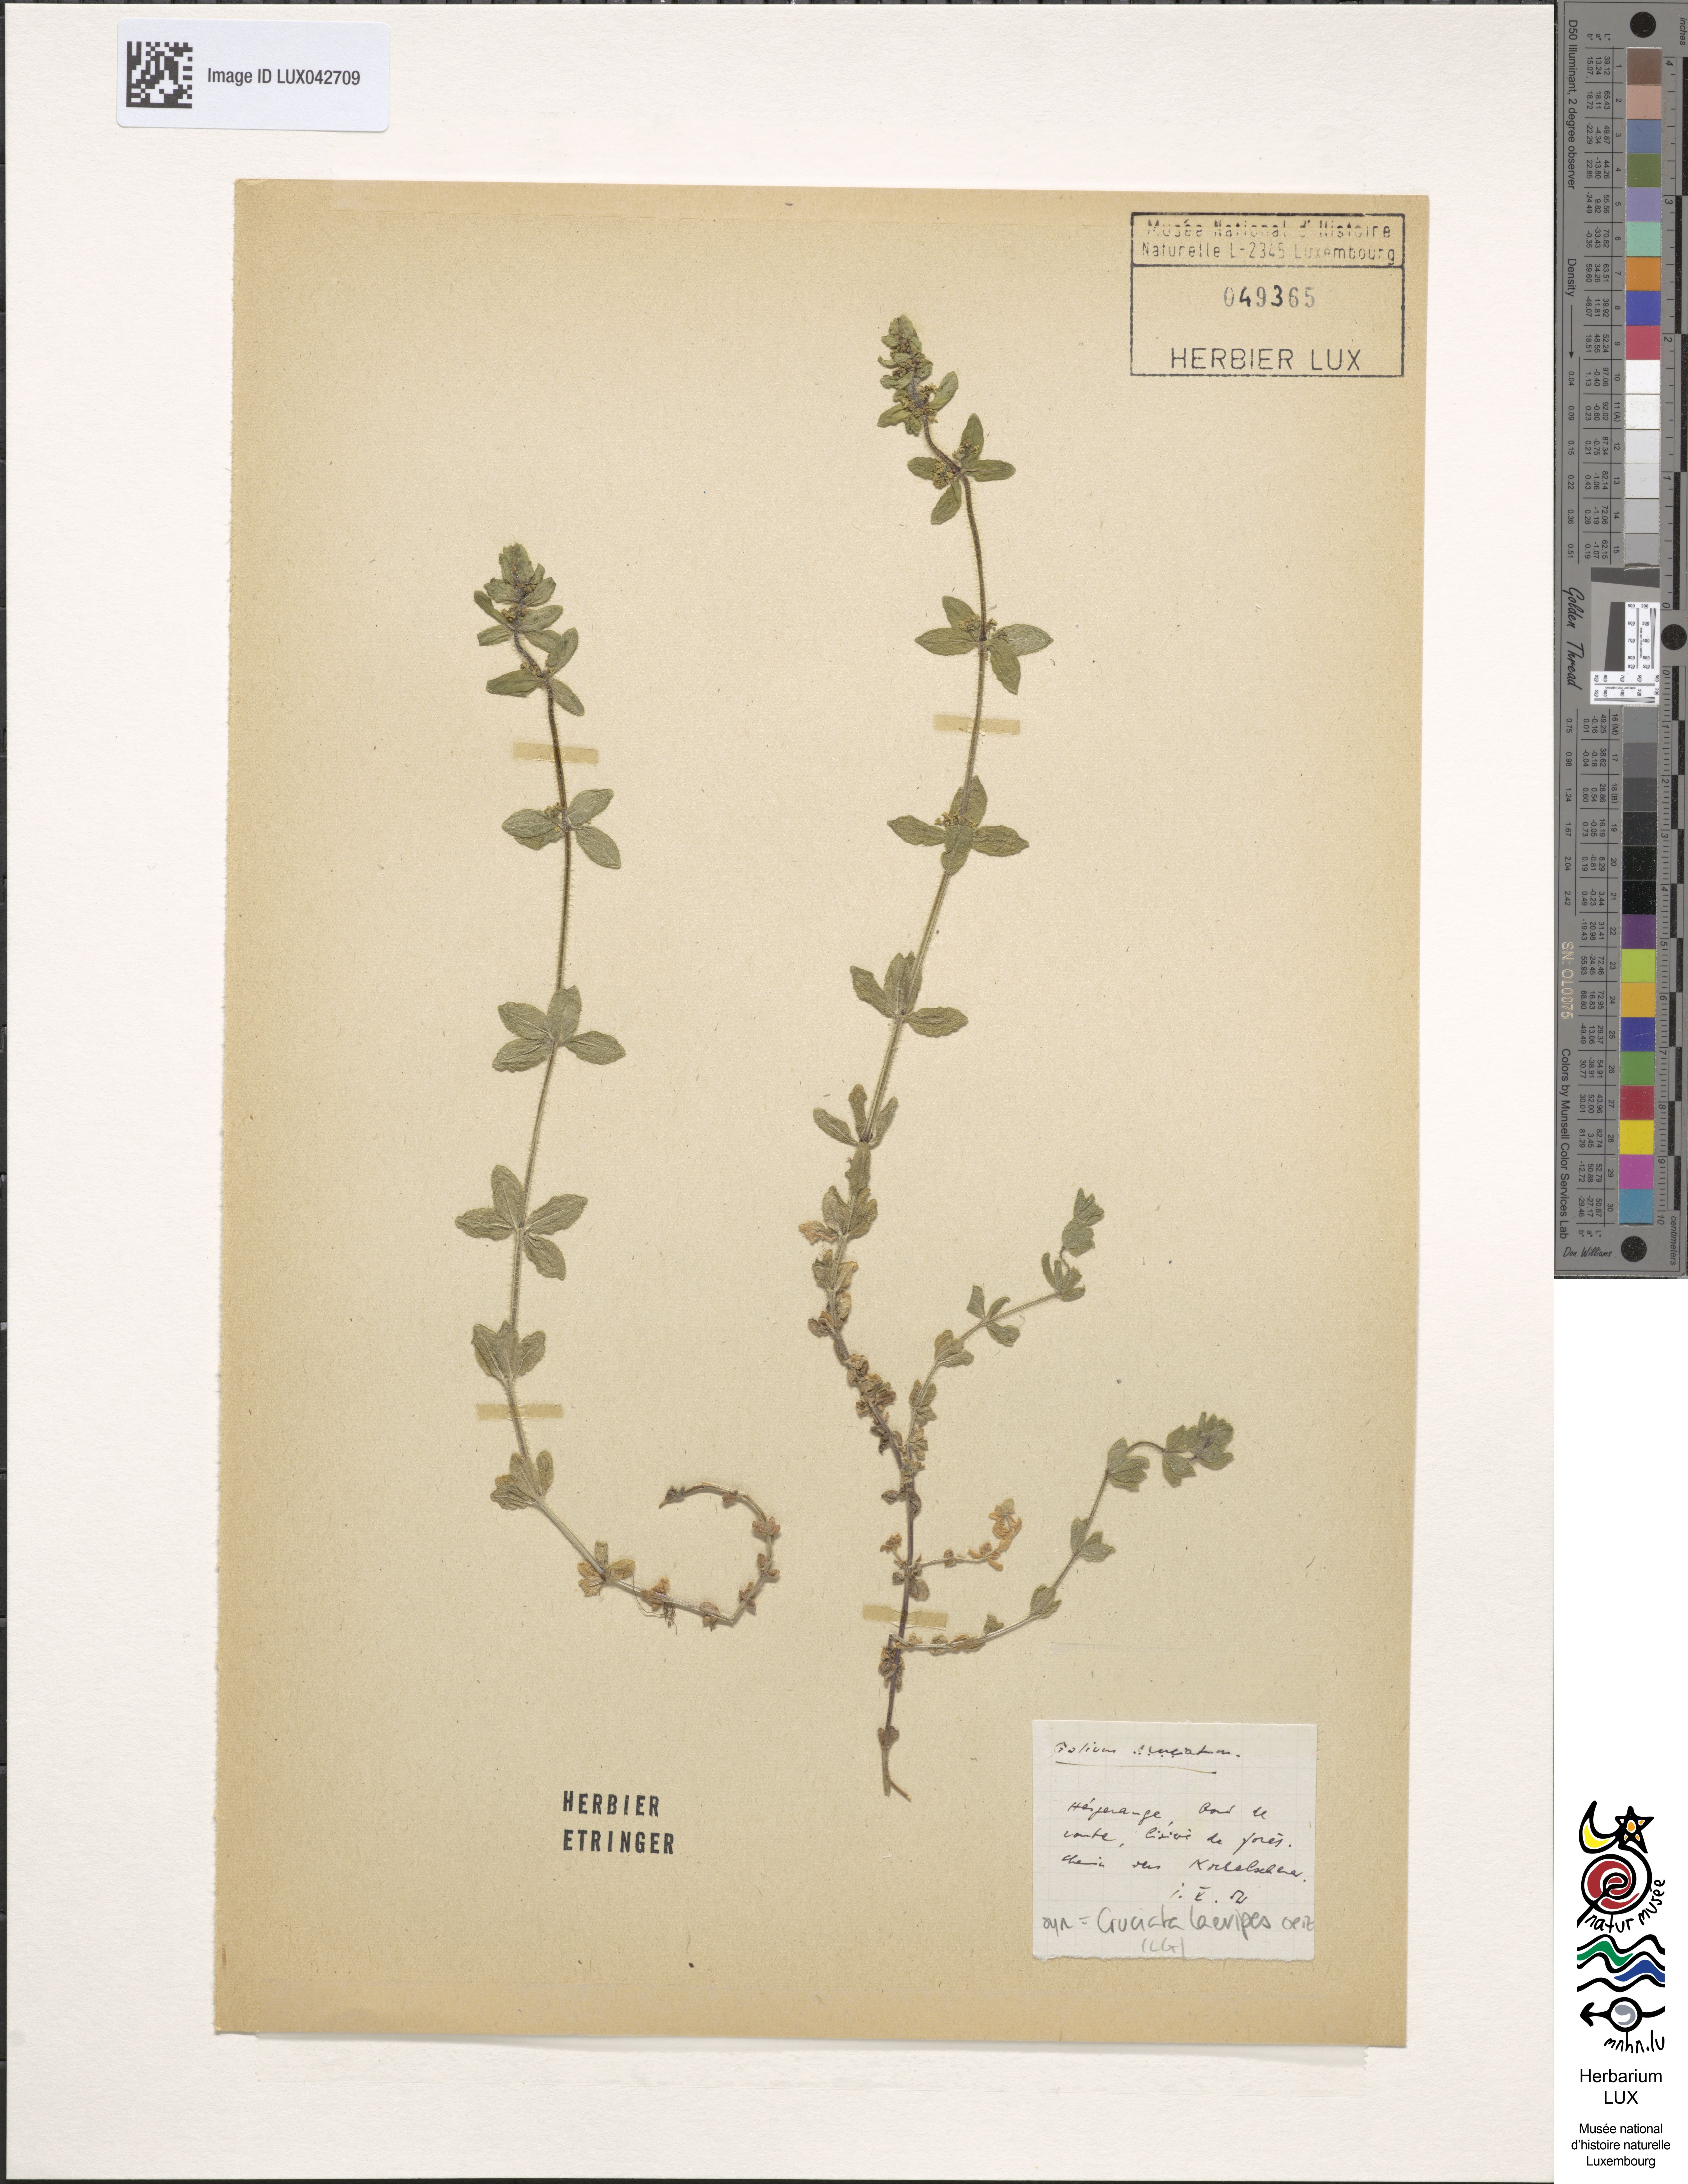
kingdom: Plantae
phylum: Tracheophyta
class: Magnoliopsida
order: Gentianales
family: Rubiaceae
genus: Cruciata
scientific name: Cruciata laevipes
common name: Crosswort
